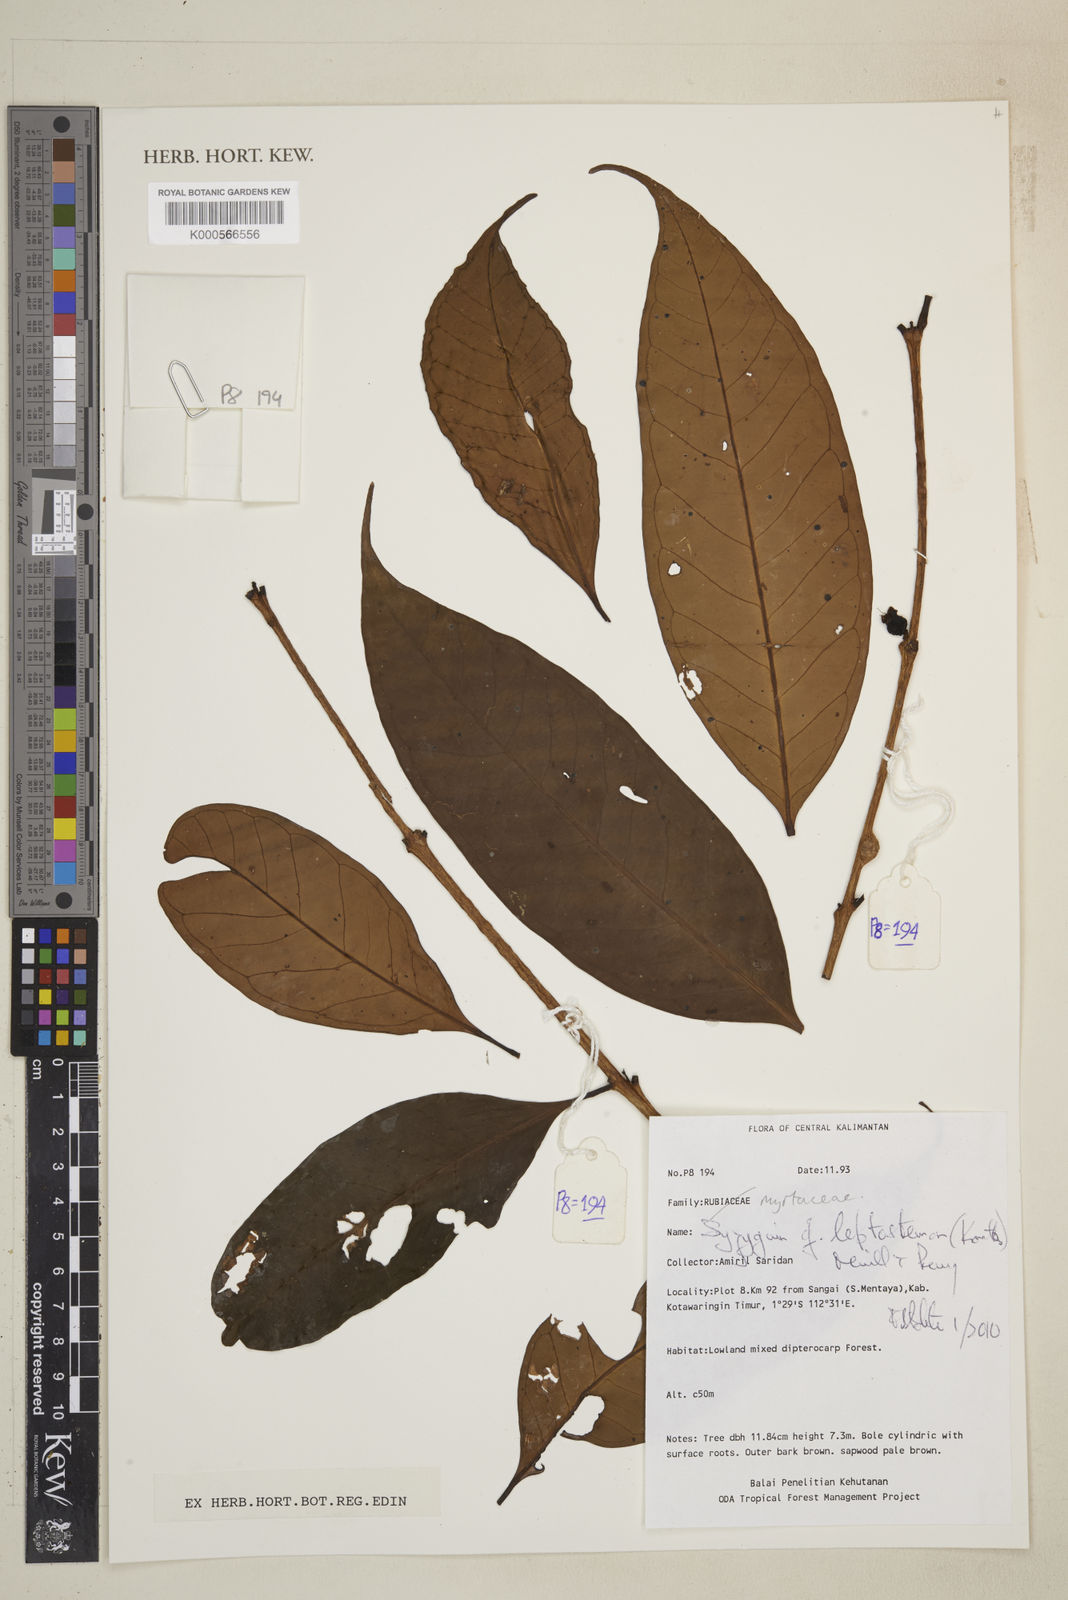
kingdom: Plantae
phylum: Tracheophyta
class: Magnoliopsida
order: Myrtales
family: Myrtaceae
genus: Syzygium
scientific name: Syzygium urceolatum
